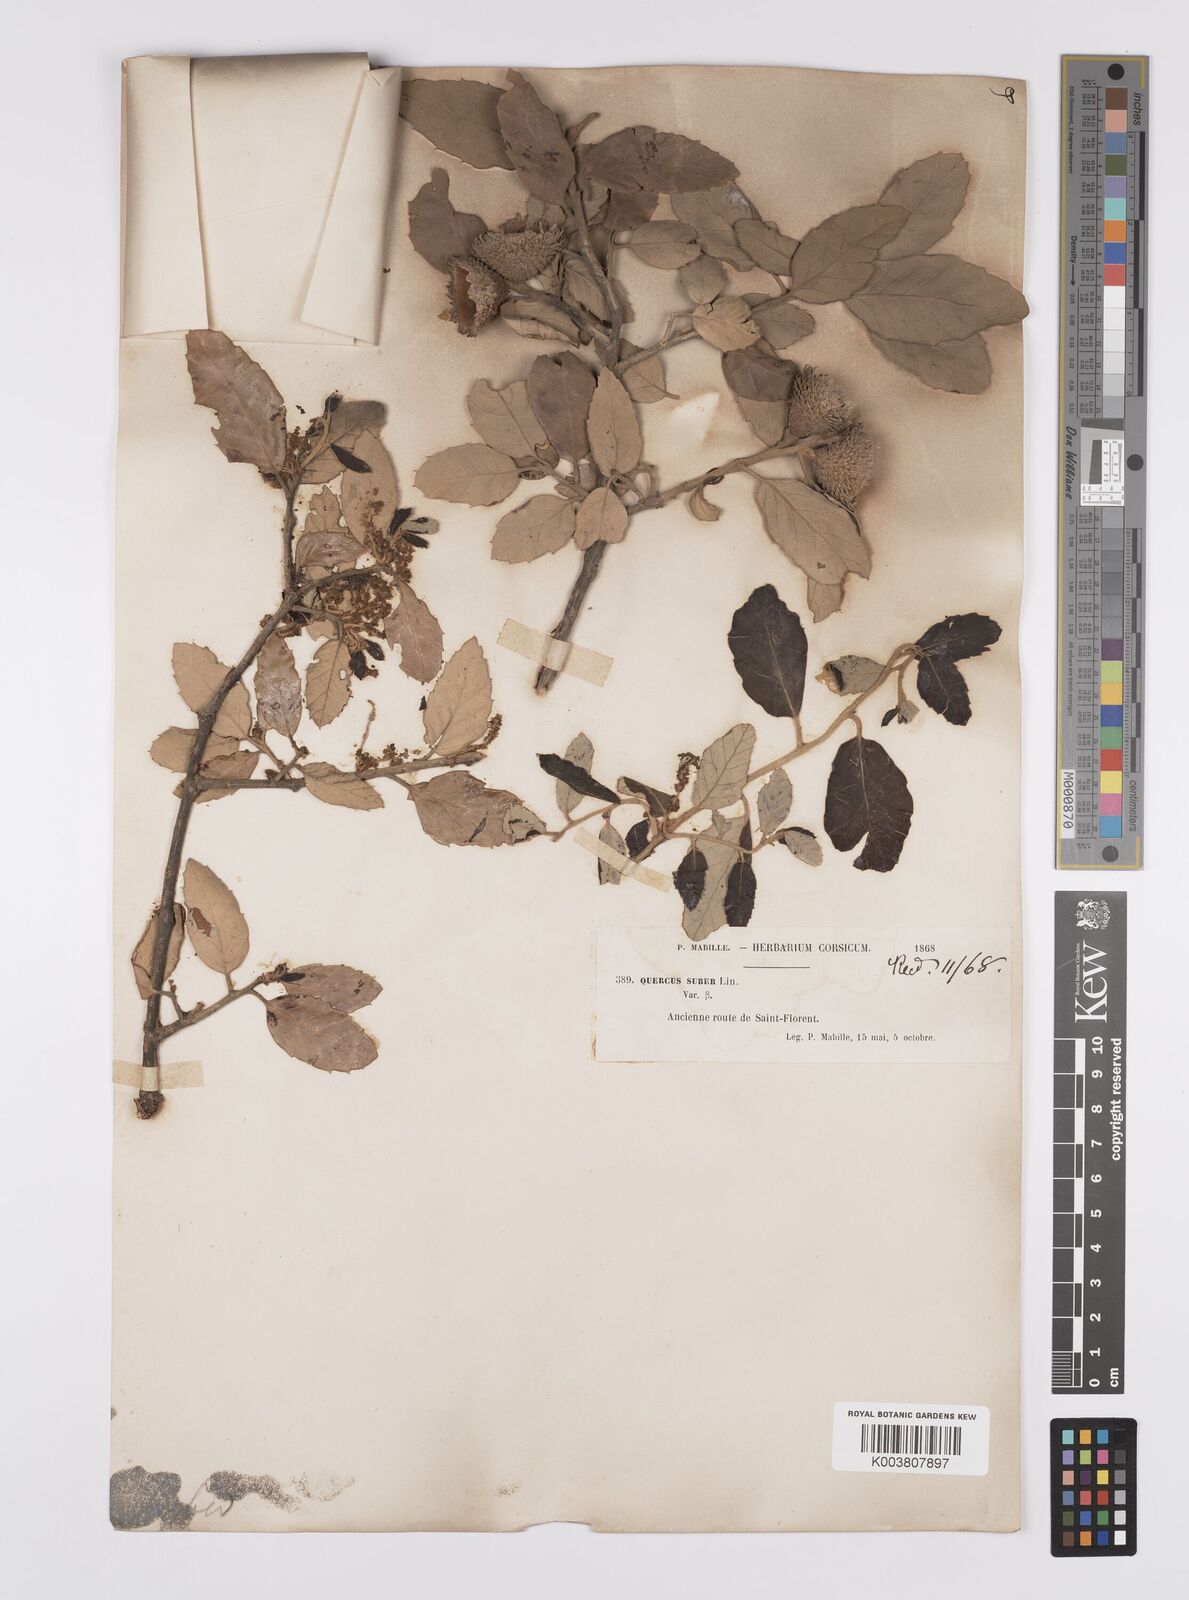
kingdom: Plantae
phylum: Tracheophyta
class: Magnoliopsida
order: Fagales
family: Fagaceae
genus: Quercus
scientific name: Quercus suber
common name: Cork oak
